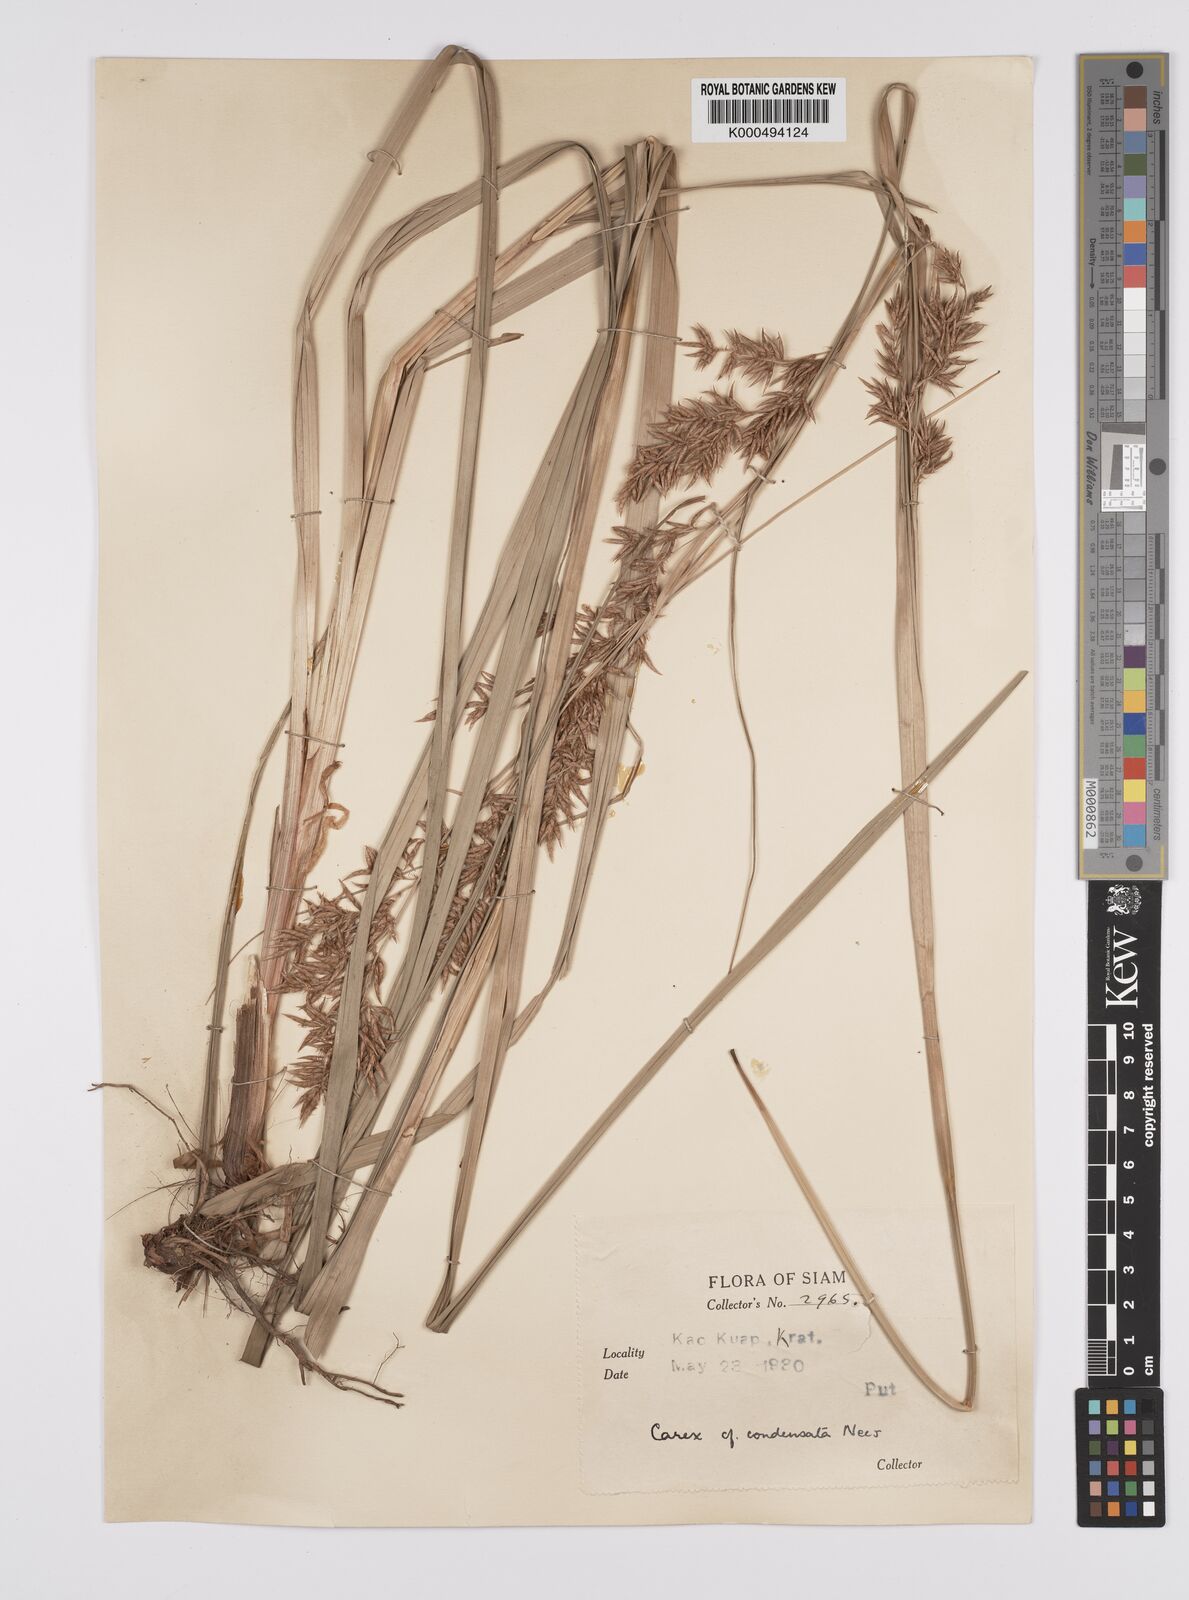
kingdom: Plantae
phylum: Tracheophyta
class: Liliopsida
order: Poales
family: Cyperaceae
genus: Carex
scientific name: Carex condensata
